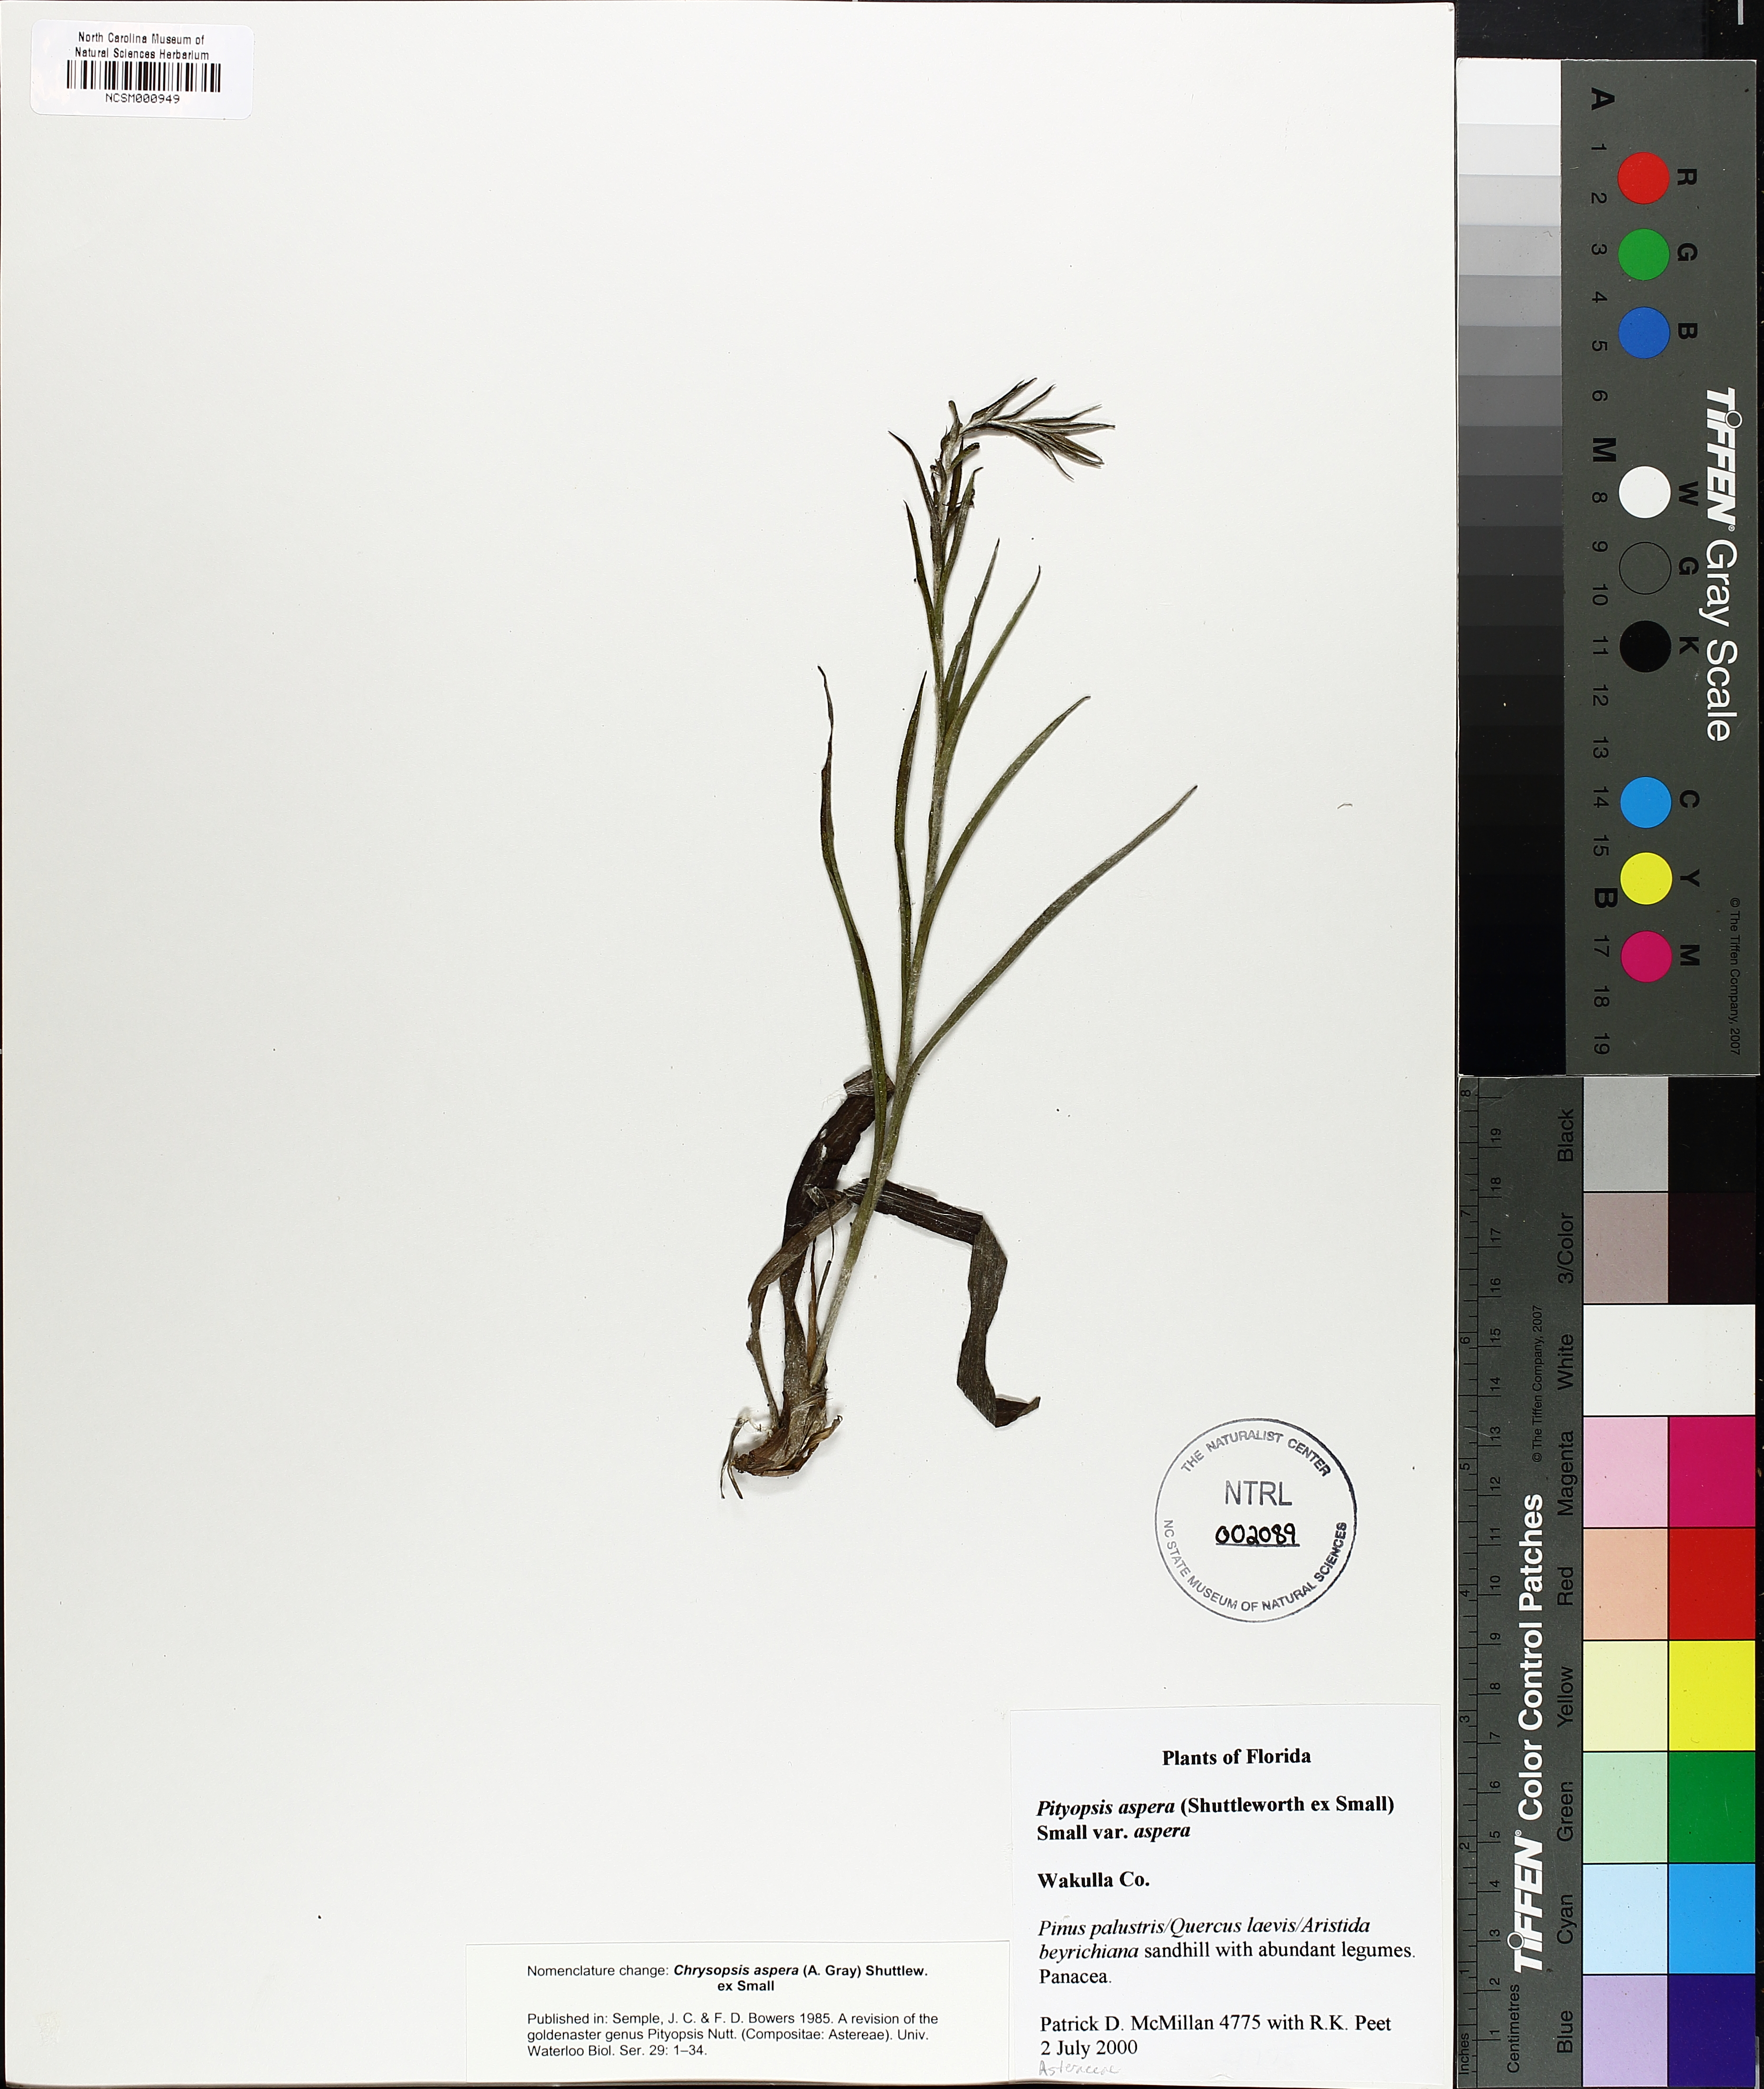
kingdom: Plantae
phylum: Tracheophyta
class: Magnoliopsida
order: Asterales
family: Asteraceae
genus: Pityopsis
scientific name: Pityopsis aspera
